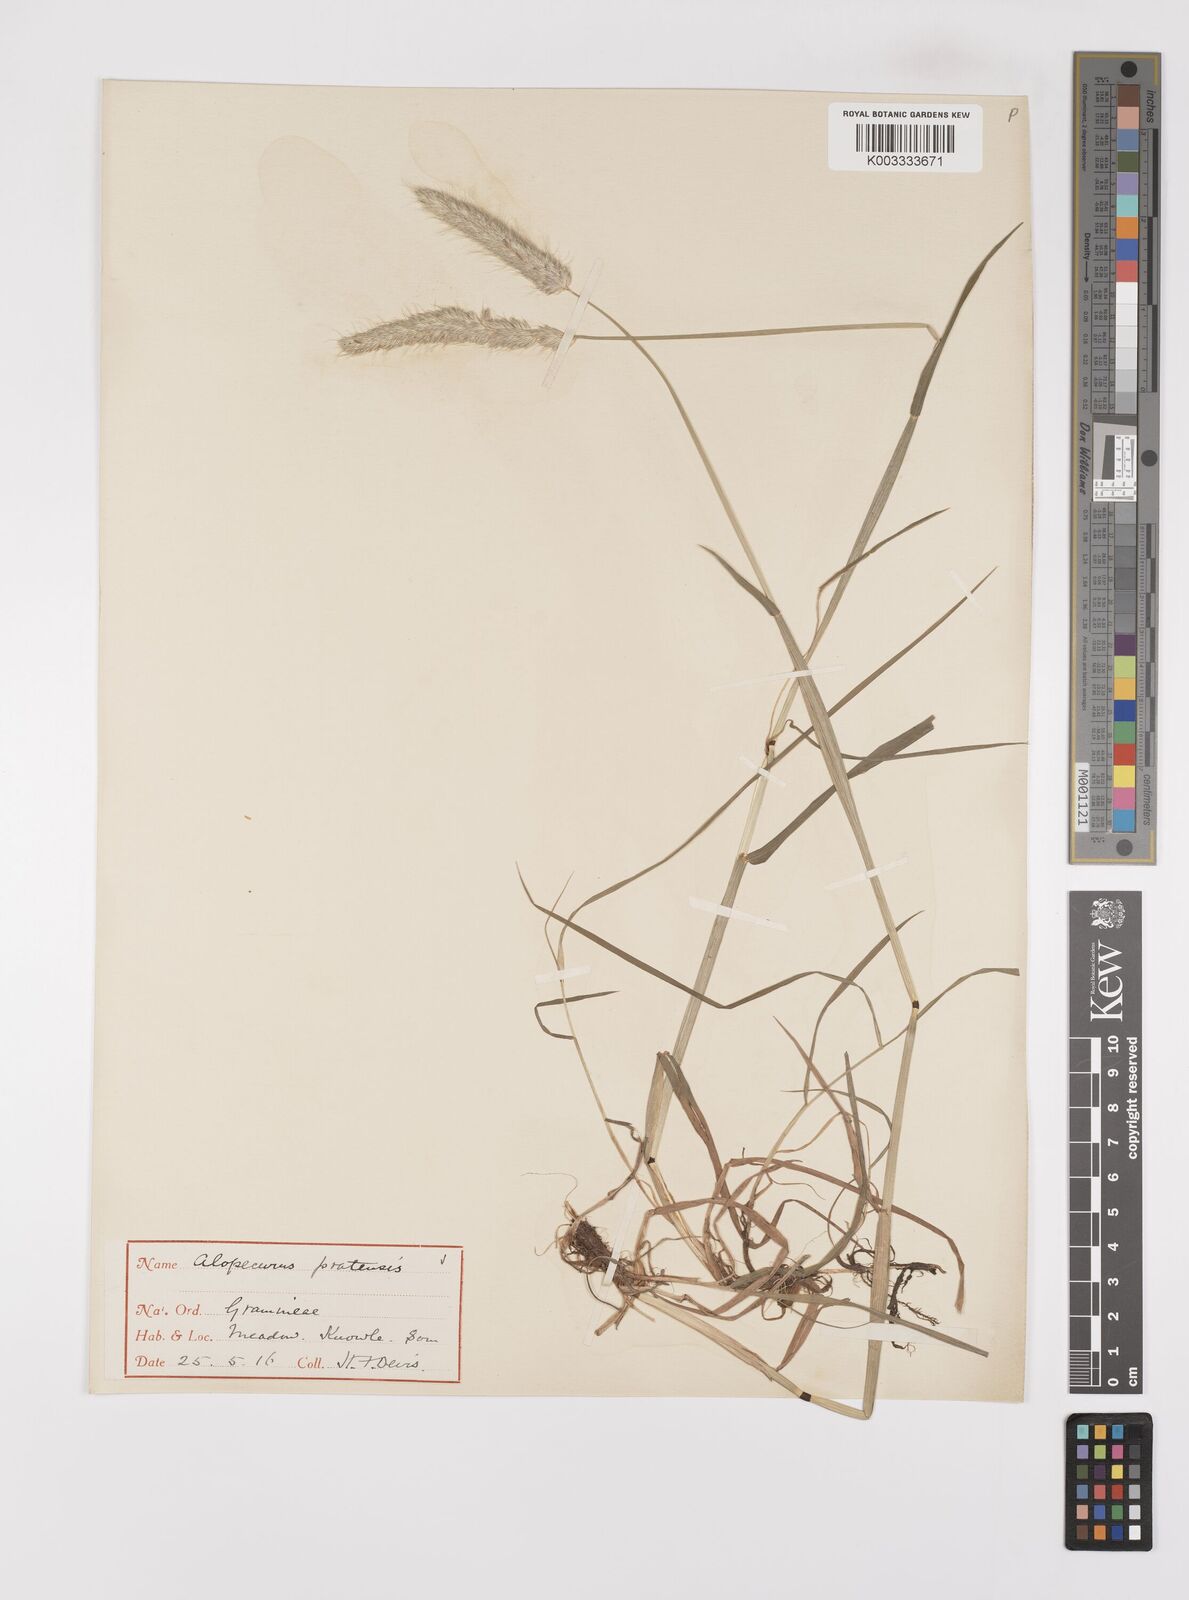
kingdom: Plantae
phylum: Tracheophyta
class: Liliopsida
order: Poales
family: Poaceae
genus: Alopecurus
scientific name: Alopecurus pratensis
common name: Meadow foxtail
